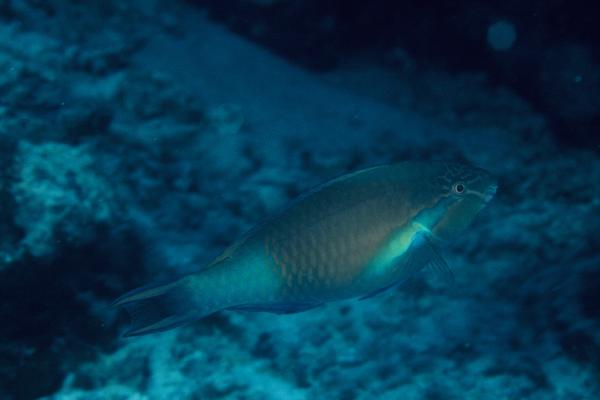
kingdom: Animalia
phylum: Chordata
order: Perciformes
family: Scaridae
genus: Scarus
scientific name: Scarus hypselopterus
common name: Java parrotfish
